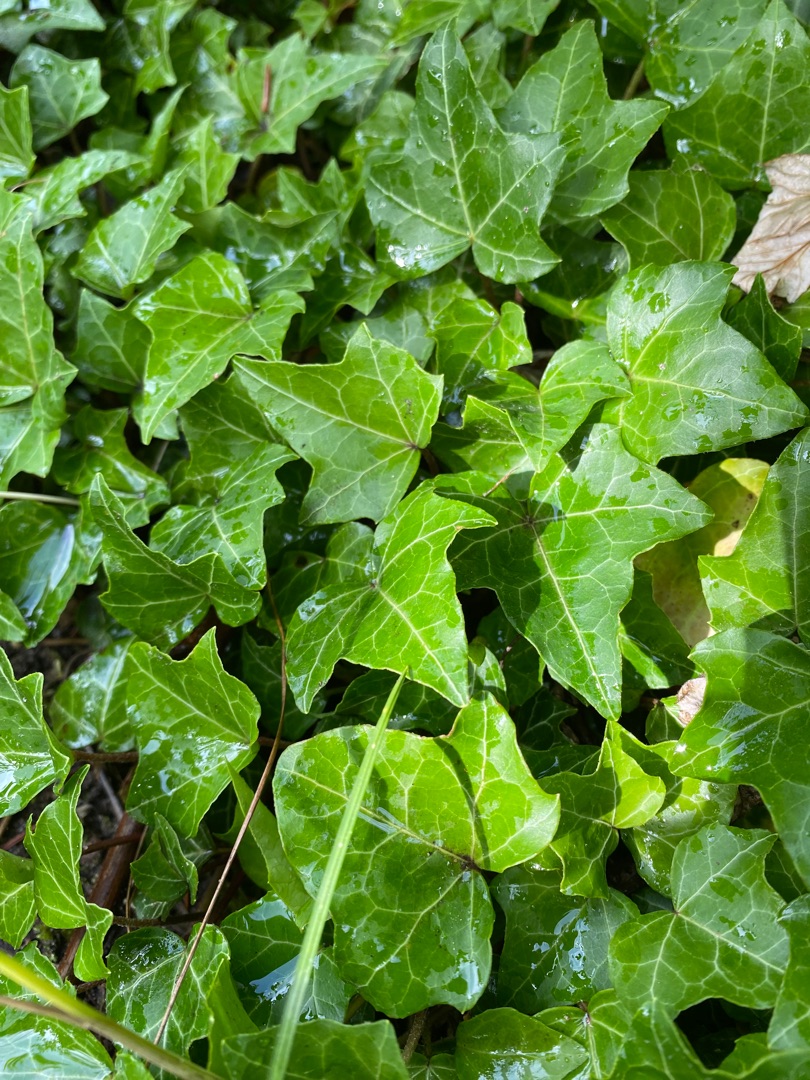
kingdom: Plantae
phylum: Tracheophyta
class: Magnoliopsida
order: Apiales
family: Araliaceae
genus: Hedera
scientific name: Hedera helix
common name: Vedbend
